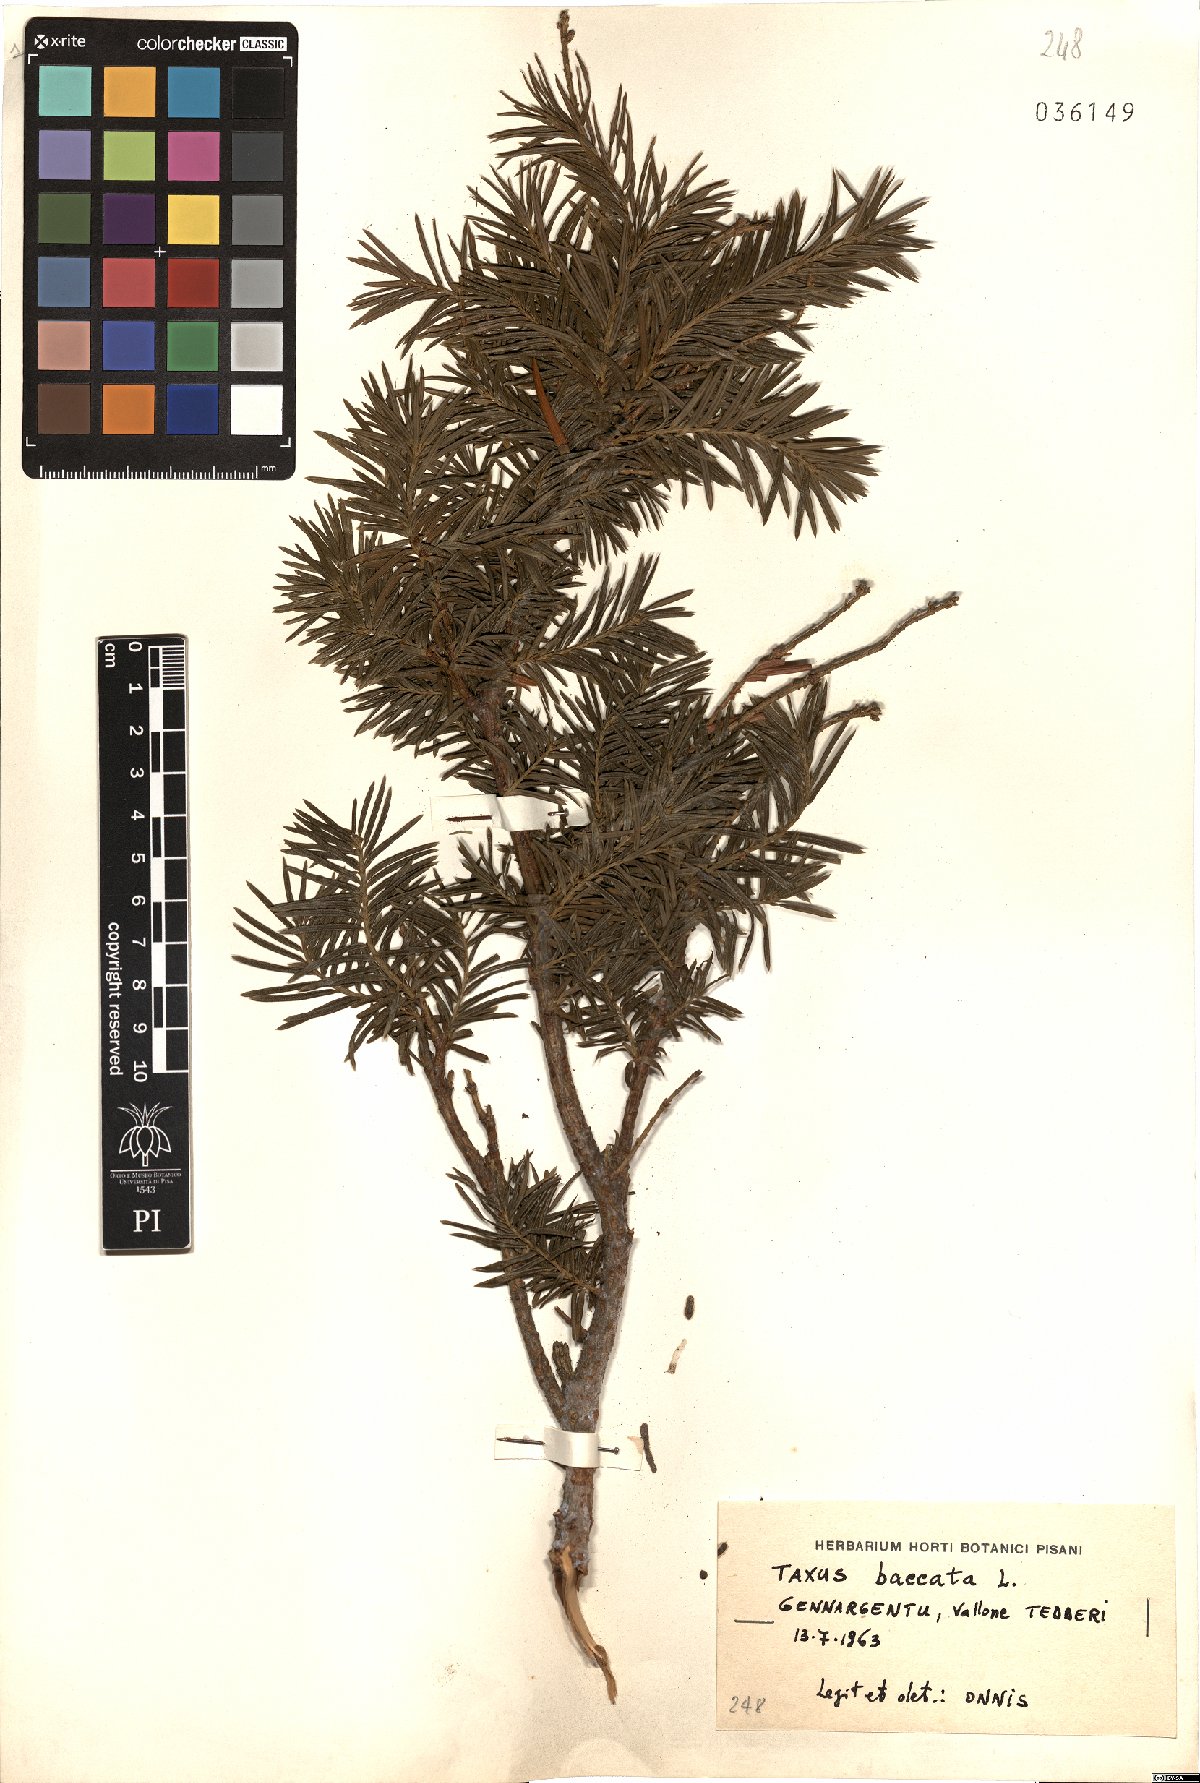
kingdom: Plantae
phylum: Tracheophyta
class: Pinopsida
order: Pinales
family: Taxaceae
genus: Taxus
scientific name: Taxus baccata
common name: Yew
